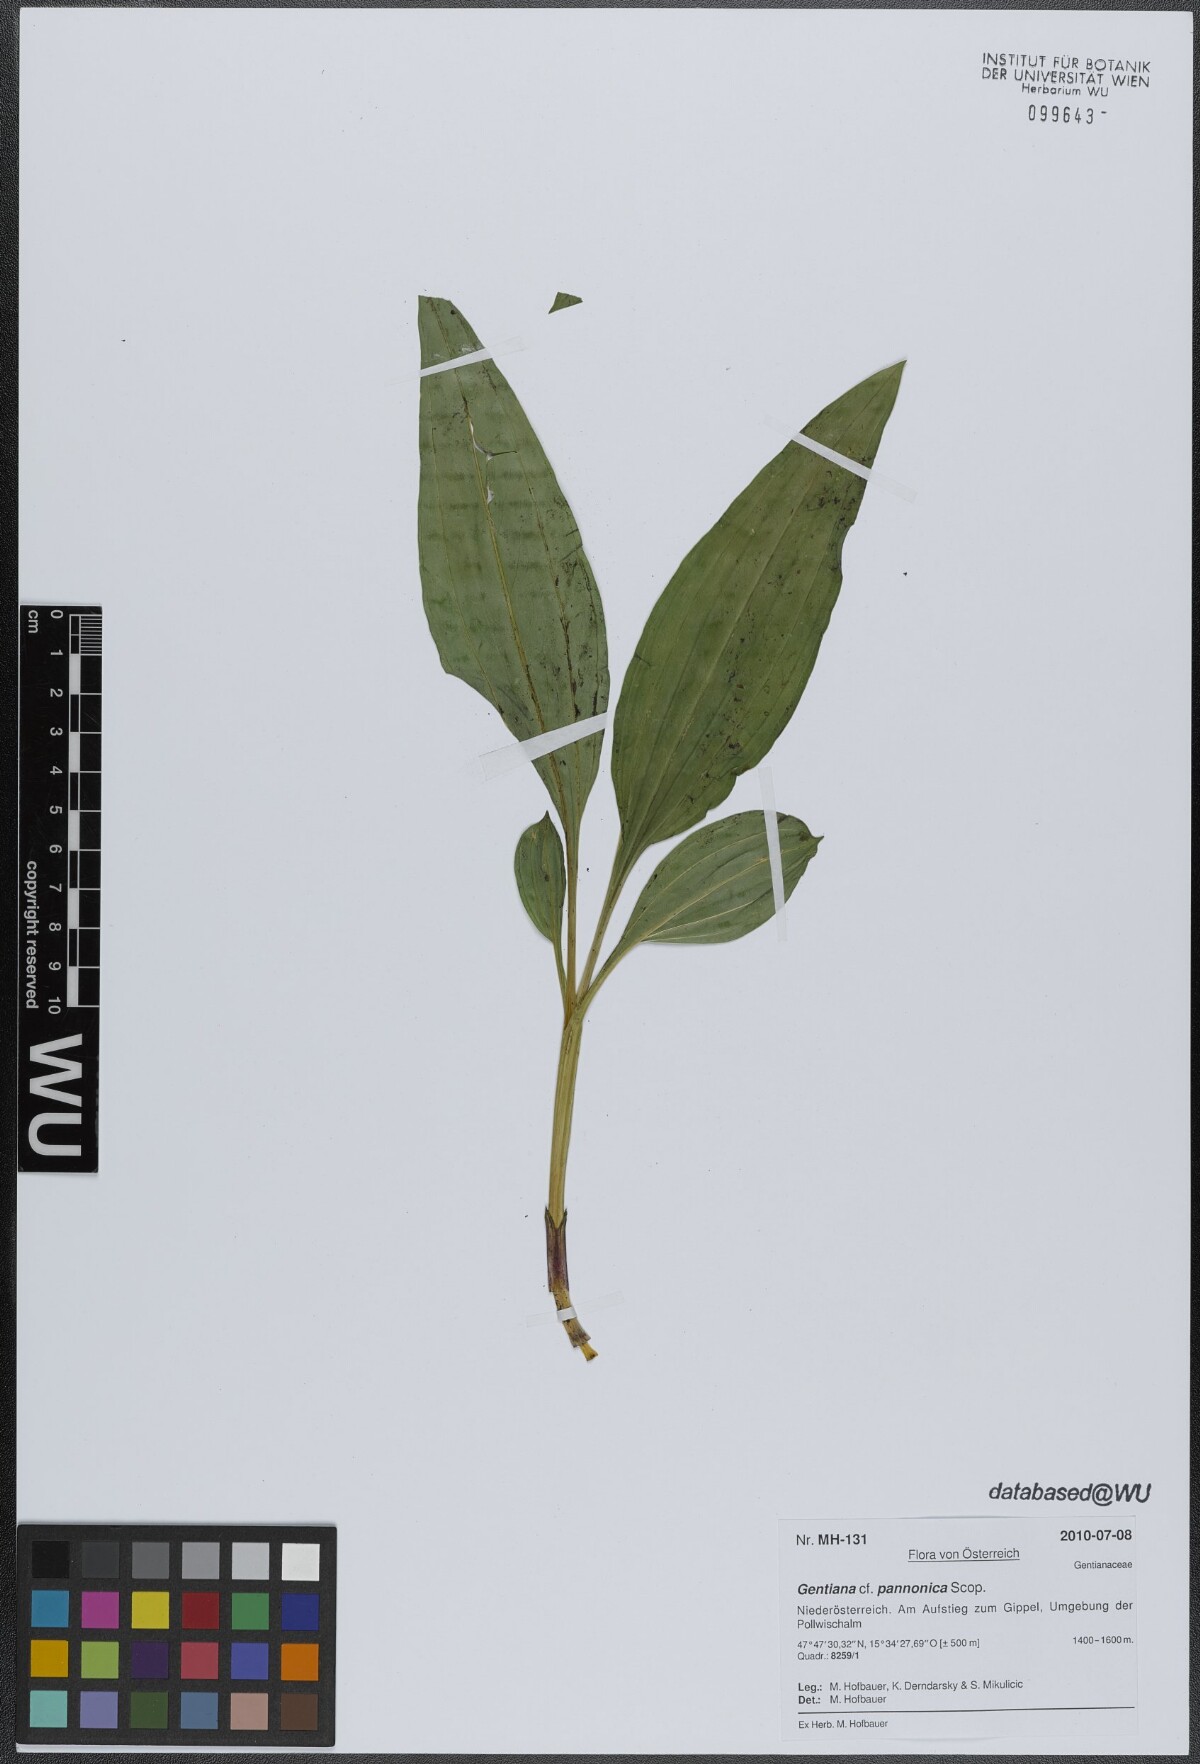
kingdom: Plantae
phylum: Tracheophyta
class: Magnoliopsida
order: Gentianales
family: Gentianaceae
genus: Gentiana
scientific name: Gentiana pannonica
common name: Hungarian gentian
